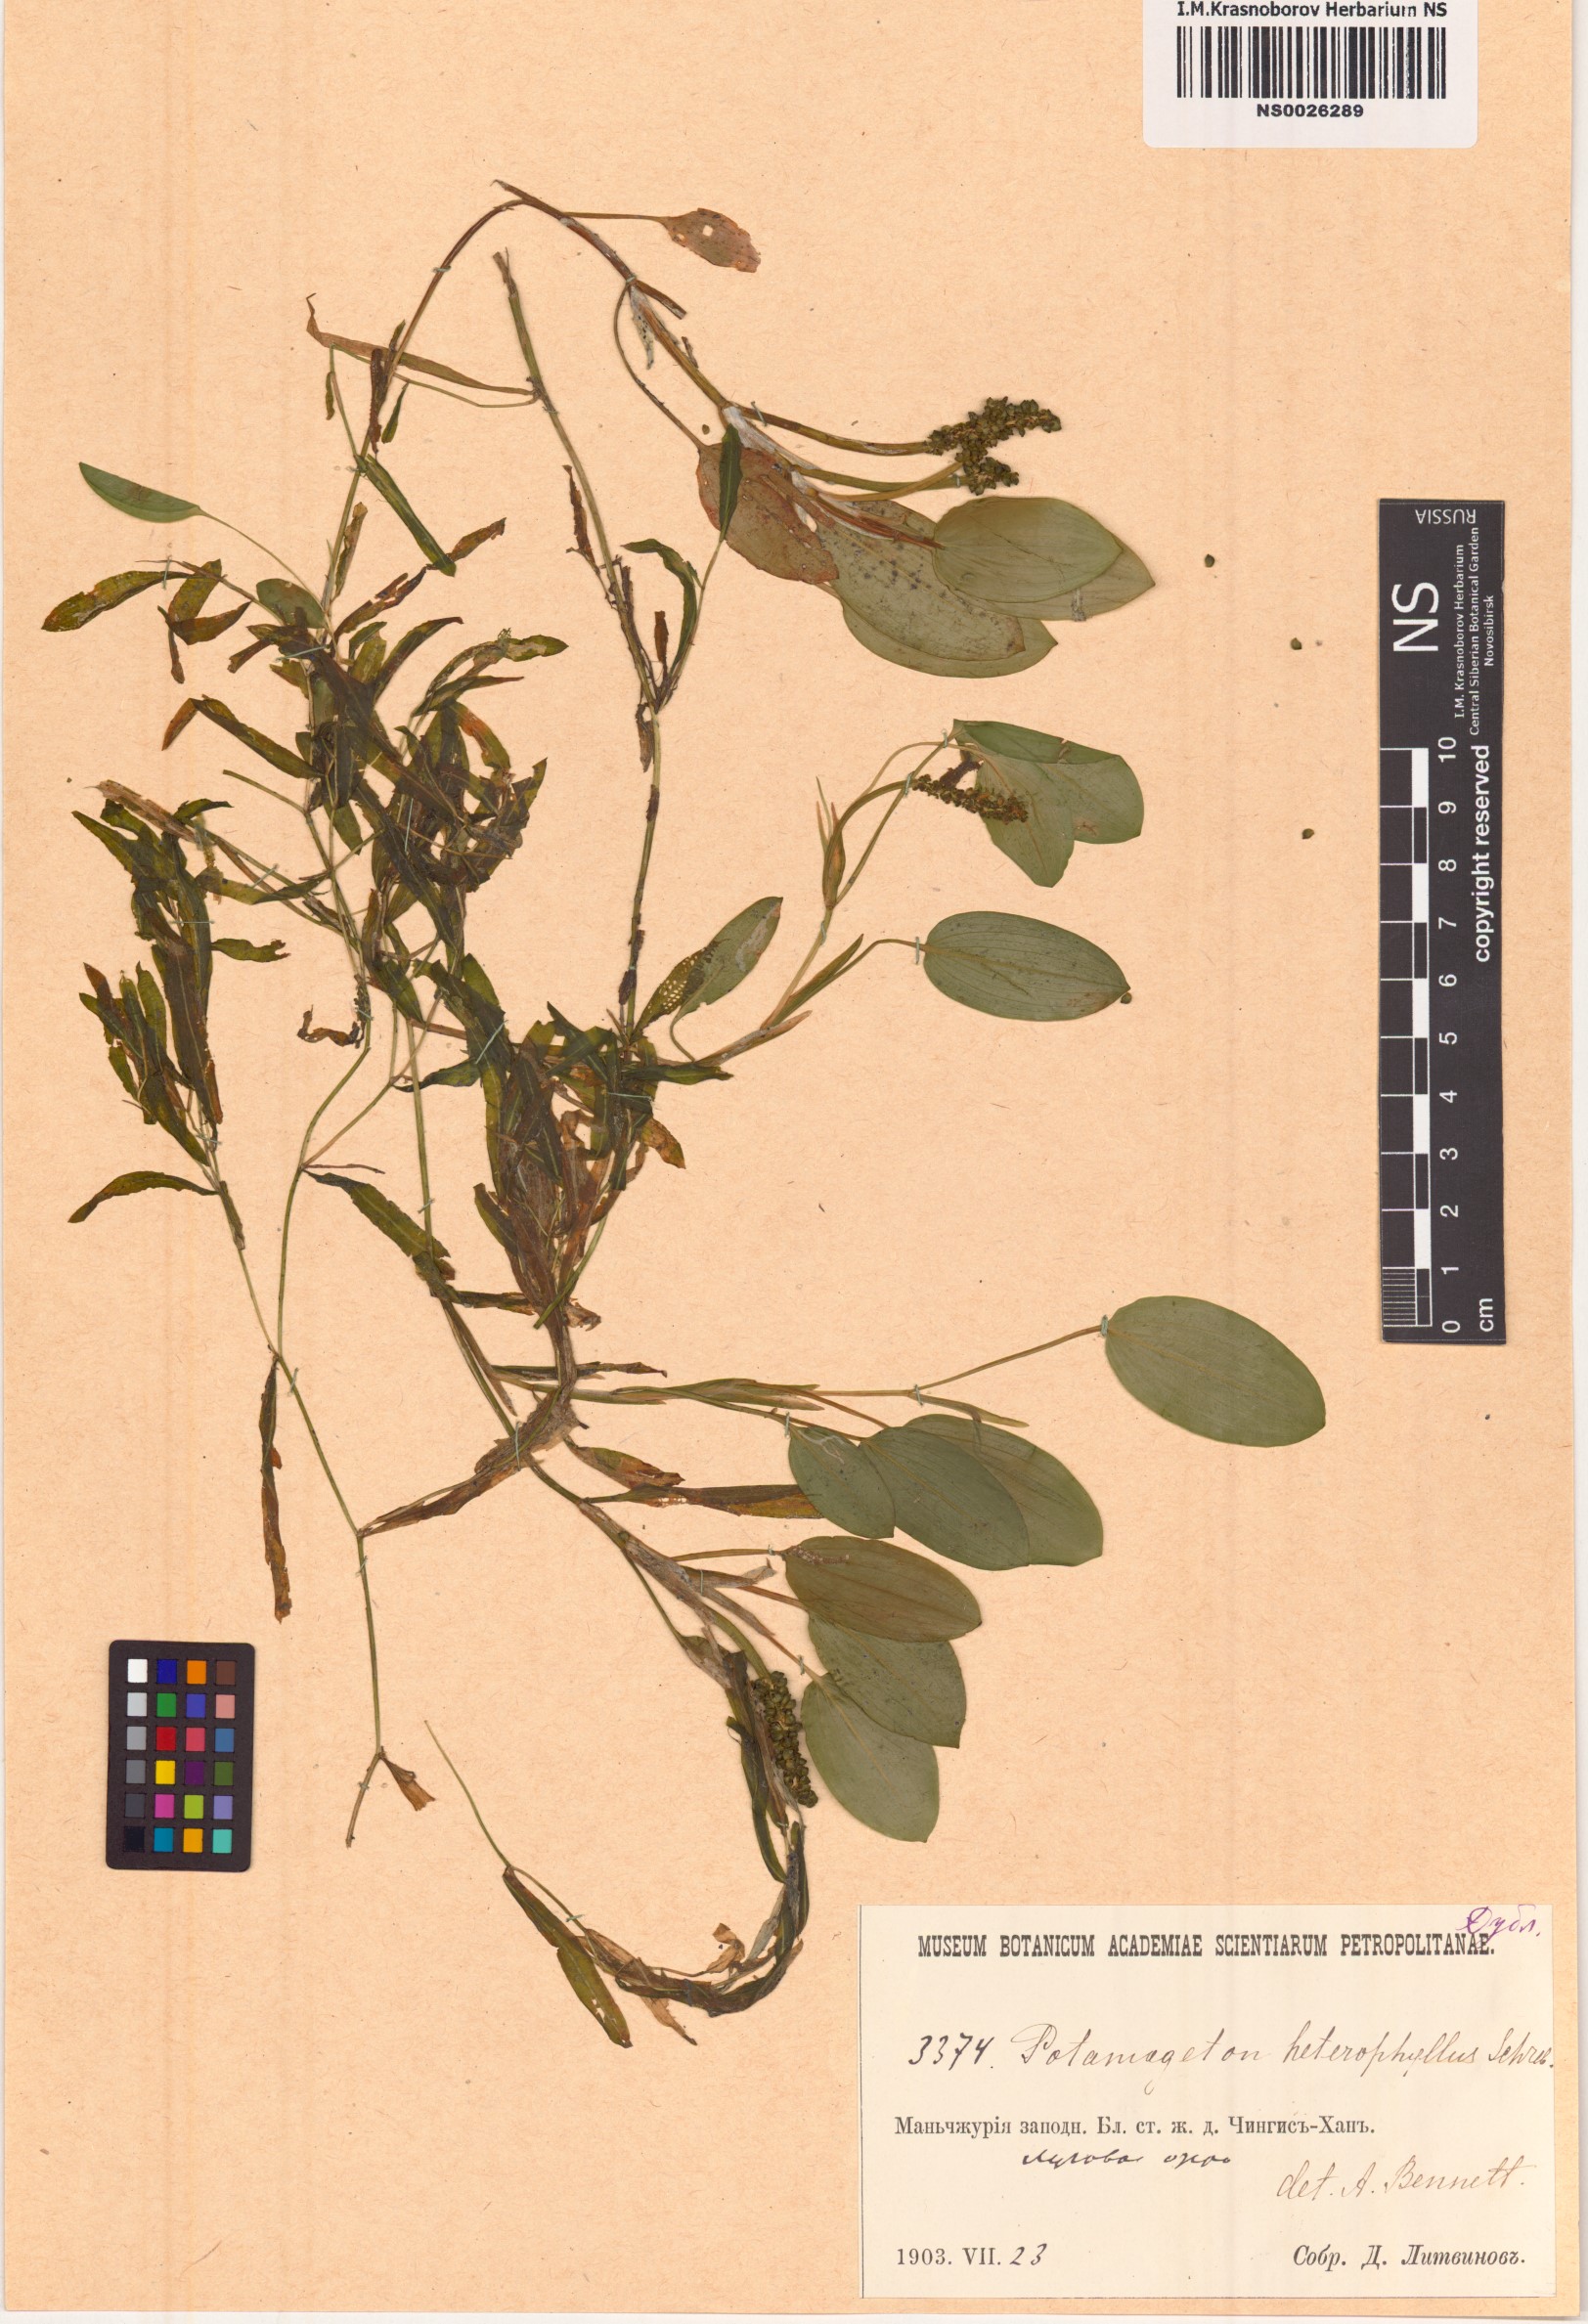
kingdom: Plantae
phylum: Tracheophyta
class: Liliopsida
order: Alismatales
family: Potamogetonaceae
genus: Potamogeton
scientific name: Potamogeton gramineus
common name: Various-leaved pondweed
